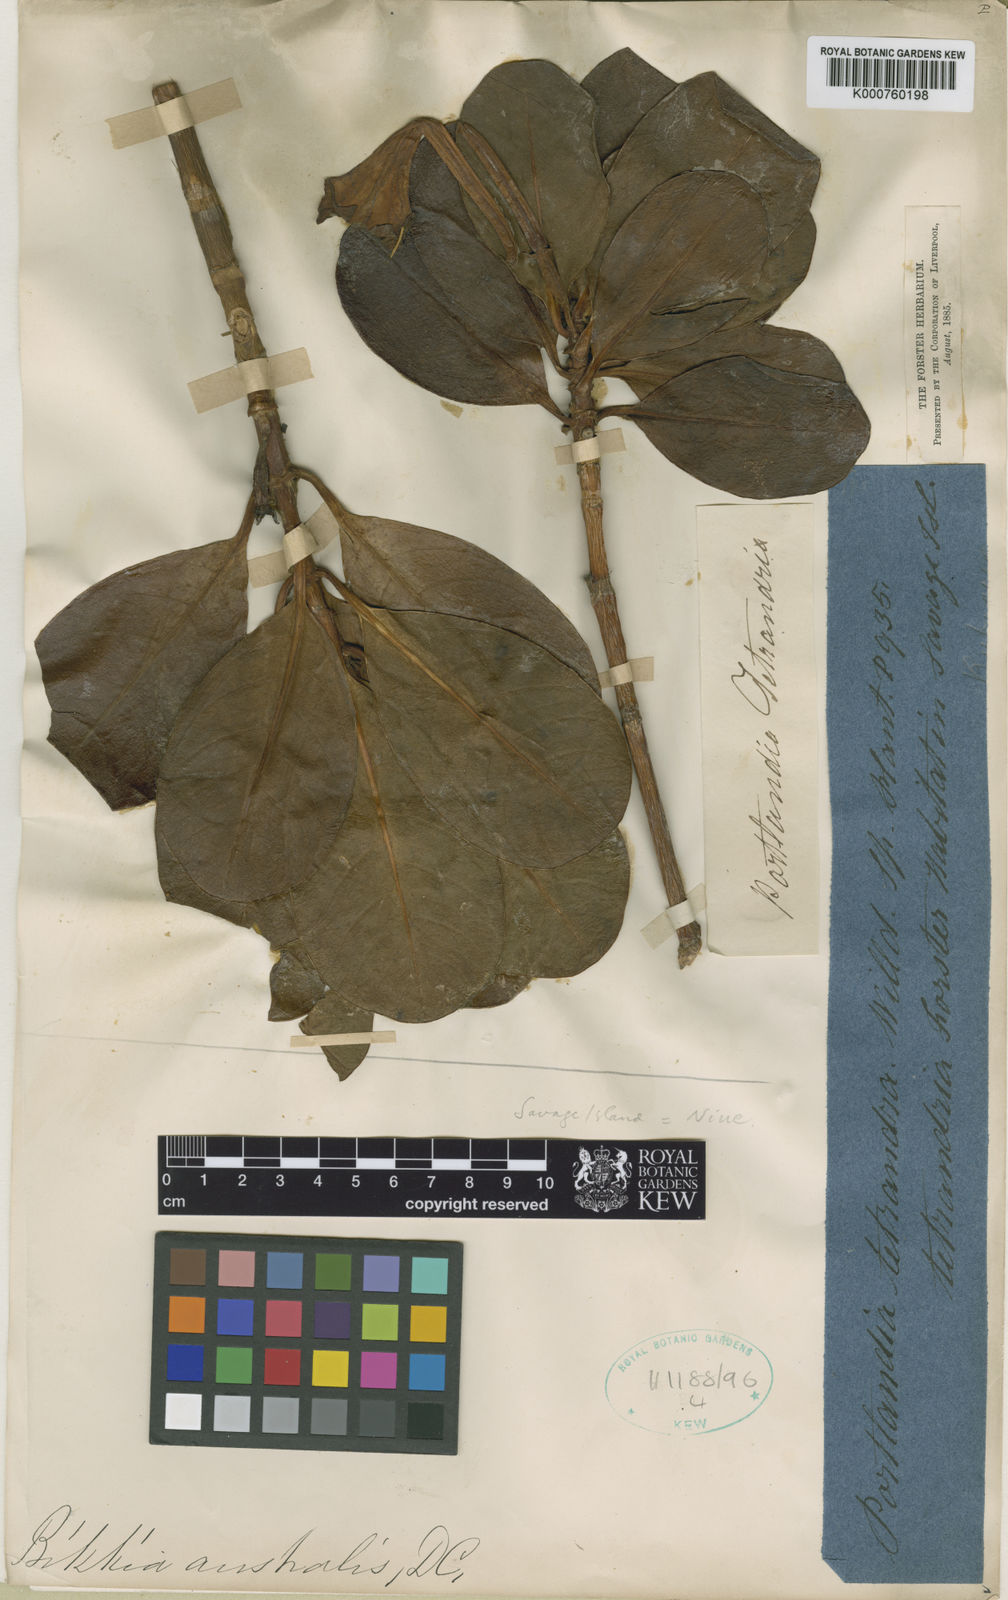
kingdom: Plantae
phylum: Tracheophyta
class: Magnoliopsida
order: Gentianales
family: Rubiaceae
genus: Bikkia
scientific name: Bikkia tetrandra
